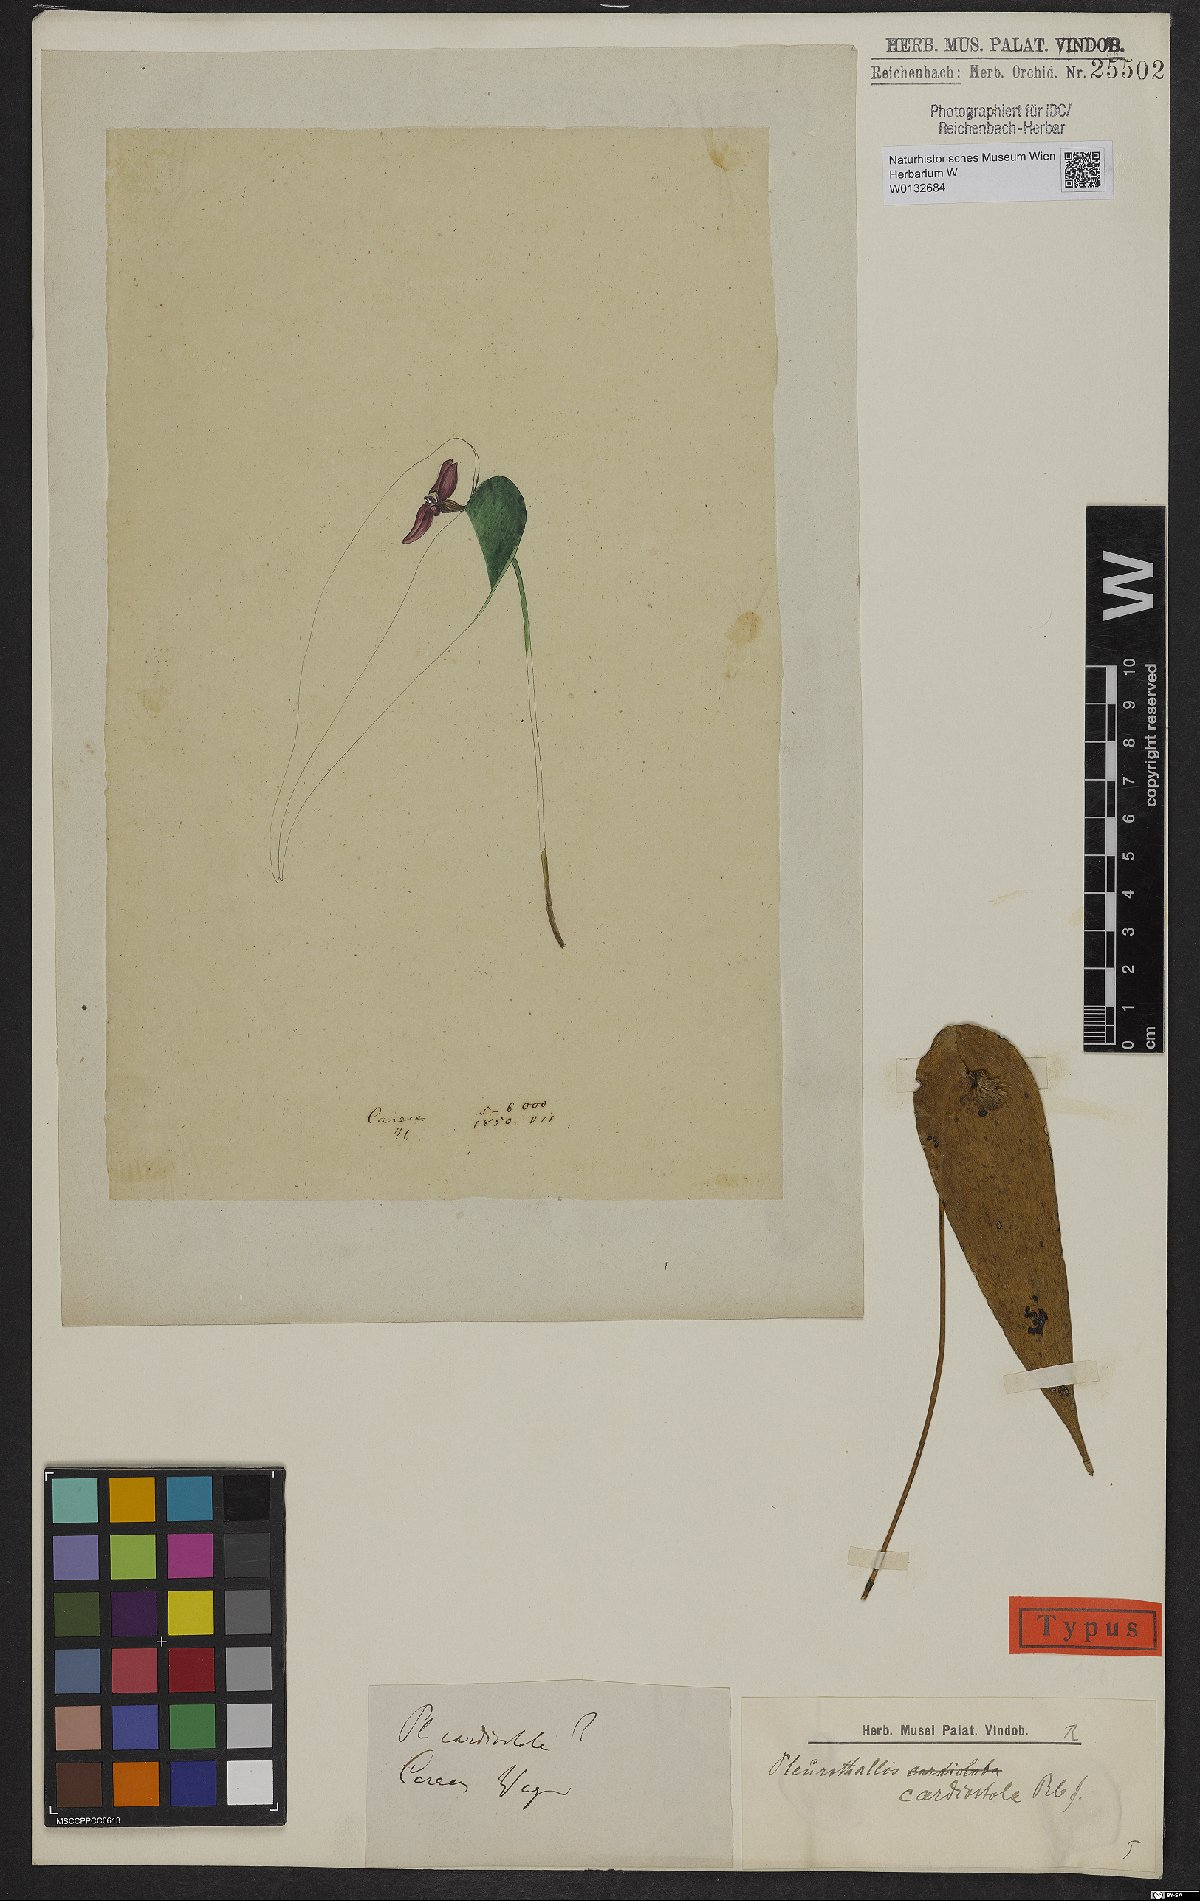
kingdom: Plantae
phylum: Tracheophyta
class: Liliopsida
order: Asparagales
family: Orchidaceae
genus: Pleurothallis
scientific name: Pleurothallis cardiostola
